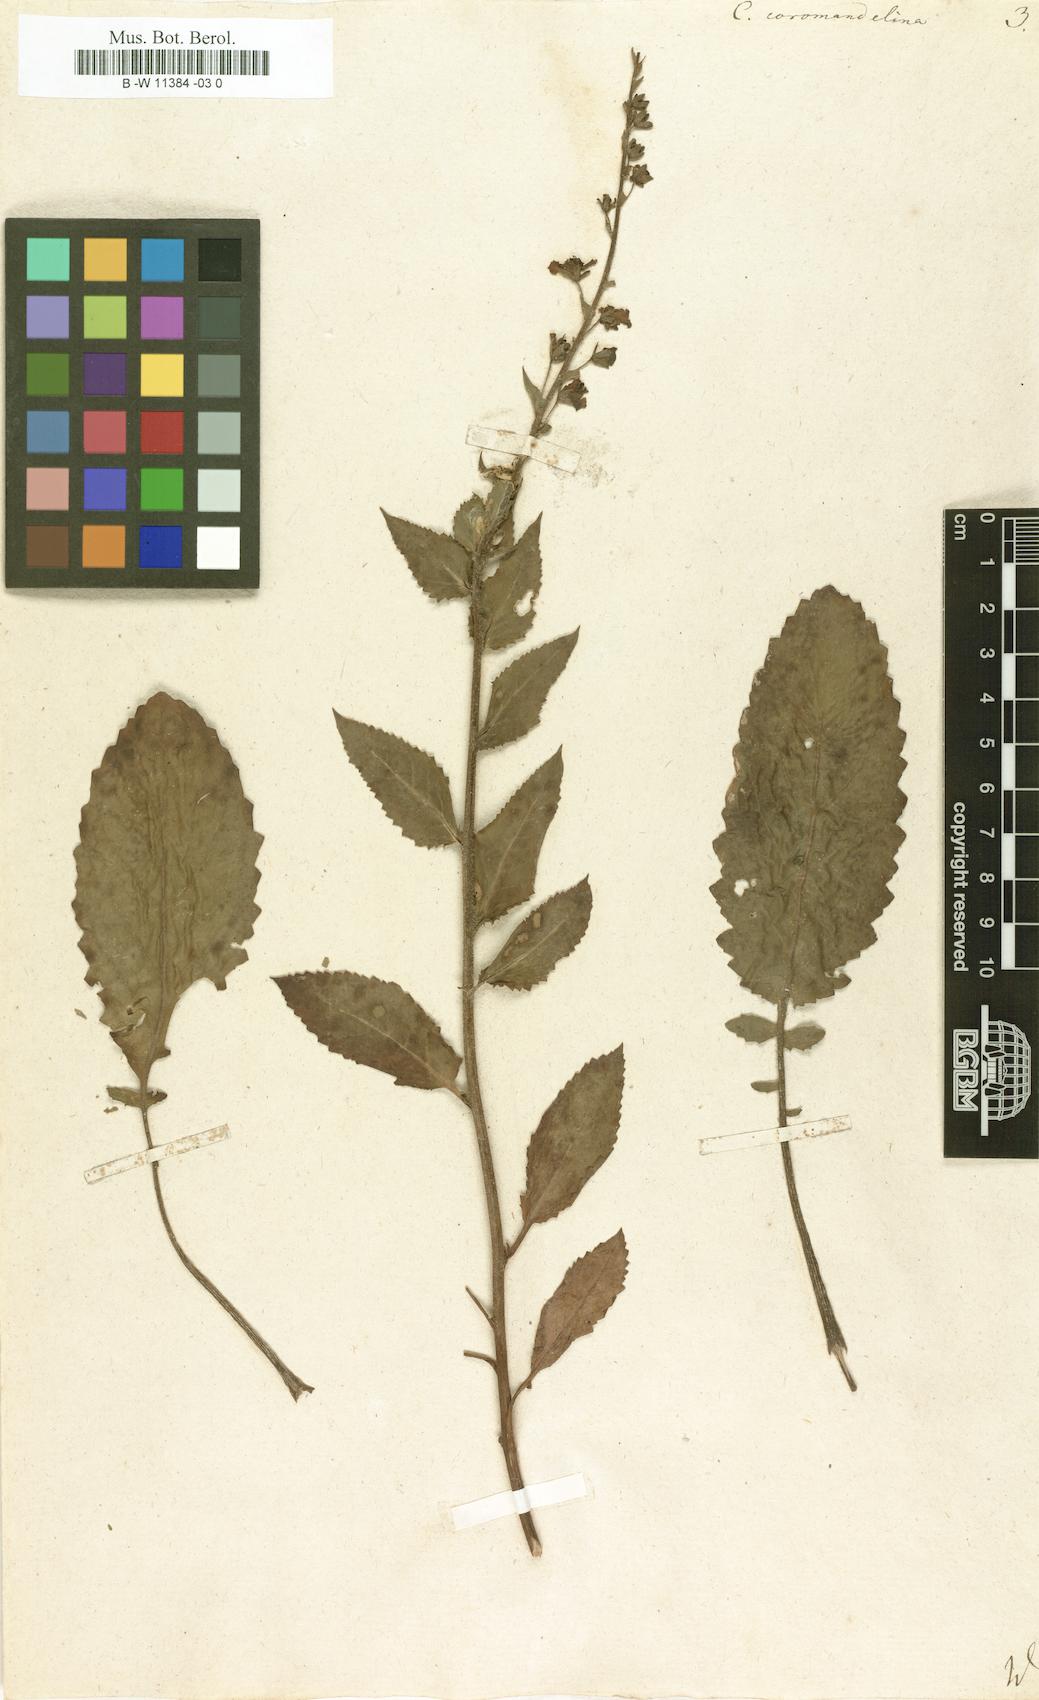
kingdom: Plantae
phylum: Tracheophyta
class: Magnoliopsida
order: Lamiales
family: Scrophulariaceae
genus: Verbascum
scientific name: Verbascum coromandelianum
